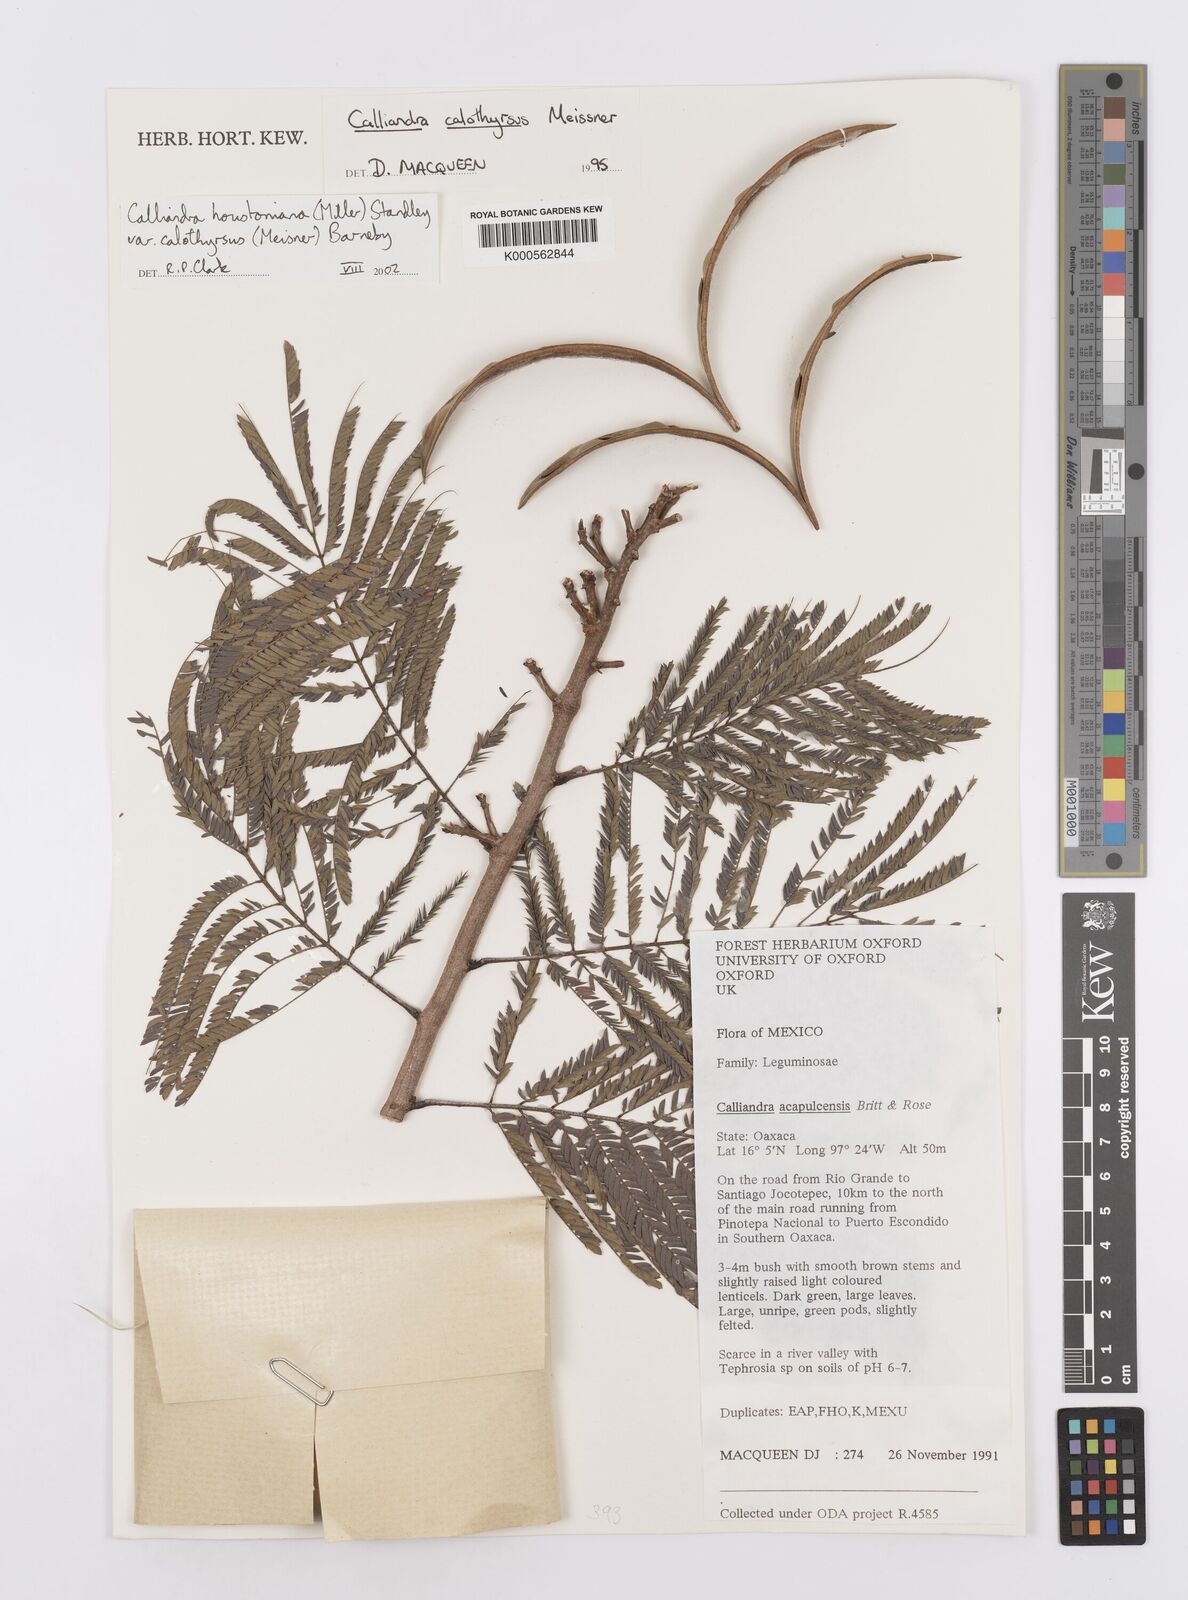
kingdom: Plantae
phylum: Tracheophyta
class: Magnoliopsida
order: Fabales
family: Fabaceae
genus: Calliandra
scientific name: Calliandra houstoniana
